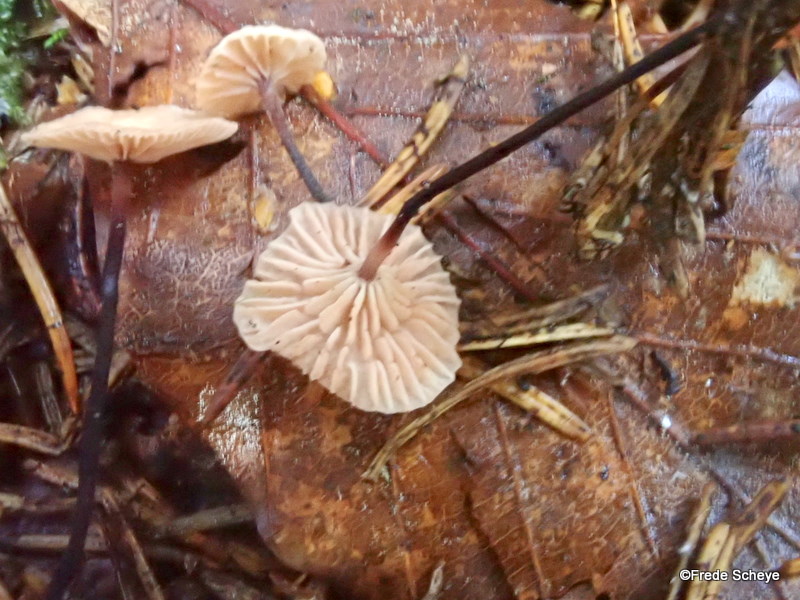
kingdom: Fungi
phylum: Basidiomycota
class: Agaricomycetes
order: Agaricales
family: Omphalotaceae
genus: Paragymnopus
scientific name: Paragymnopus perforans
